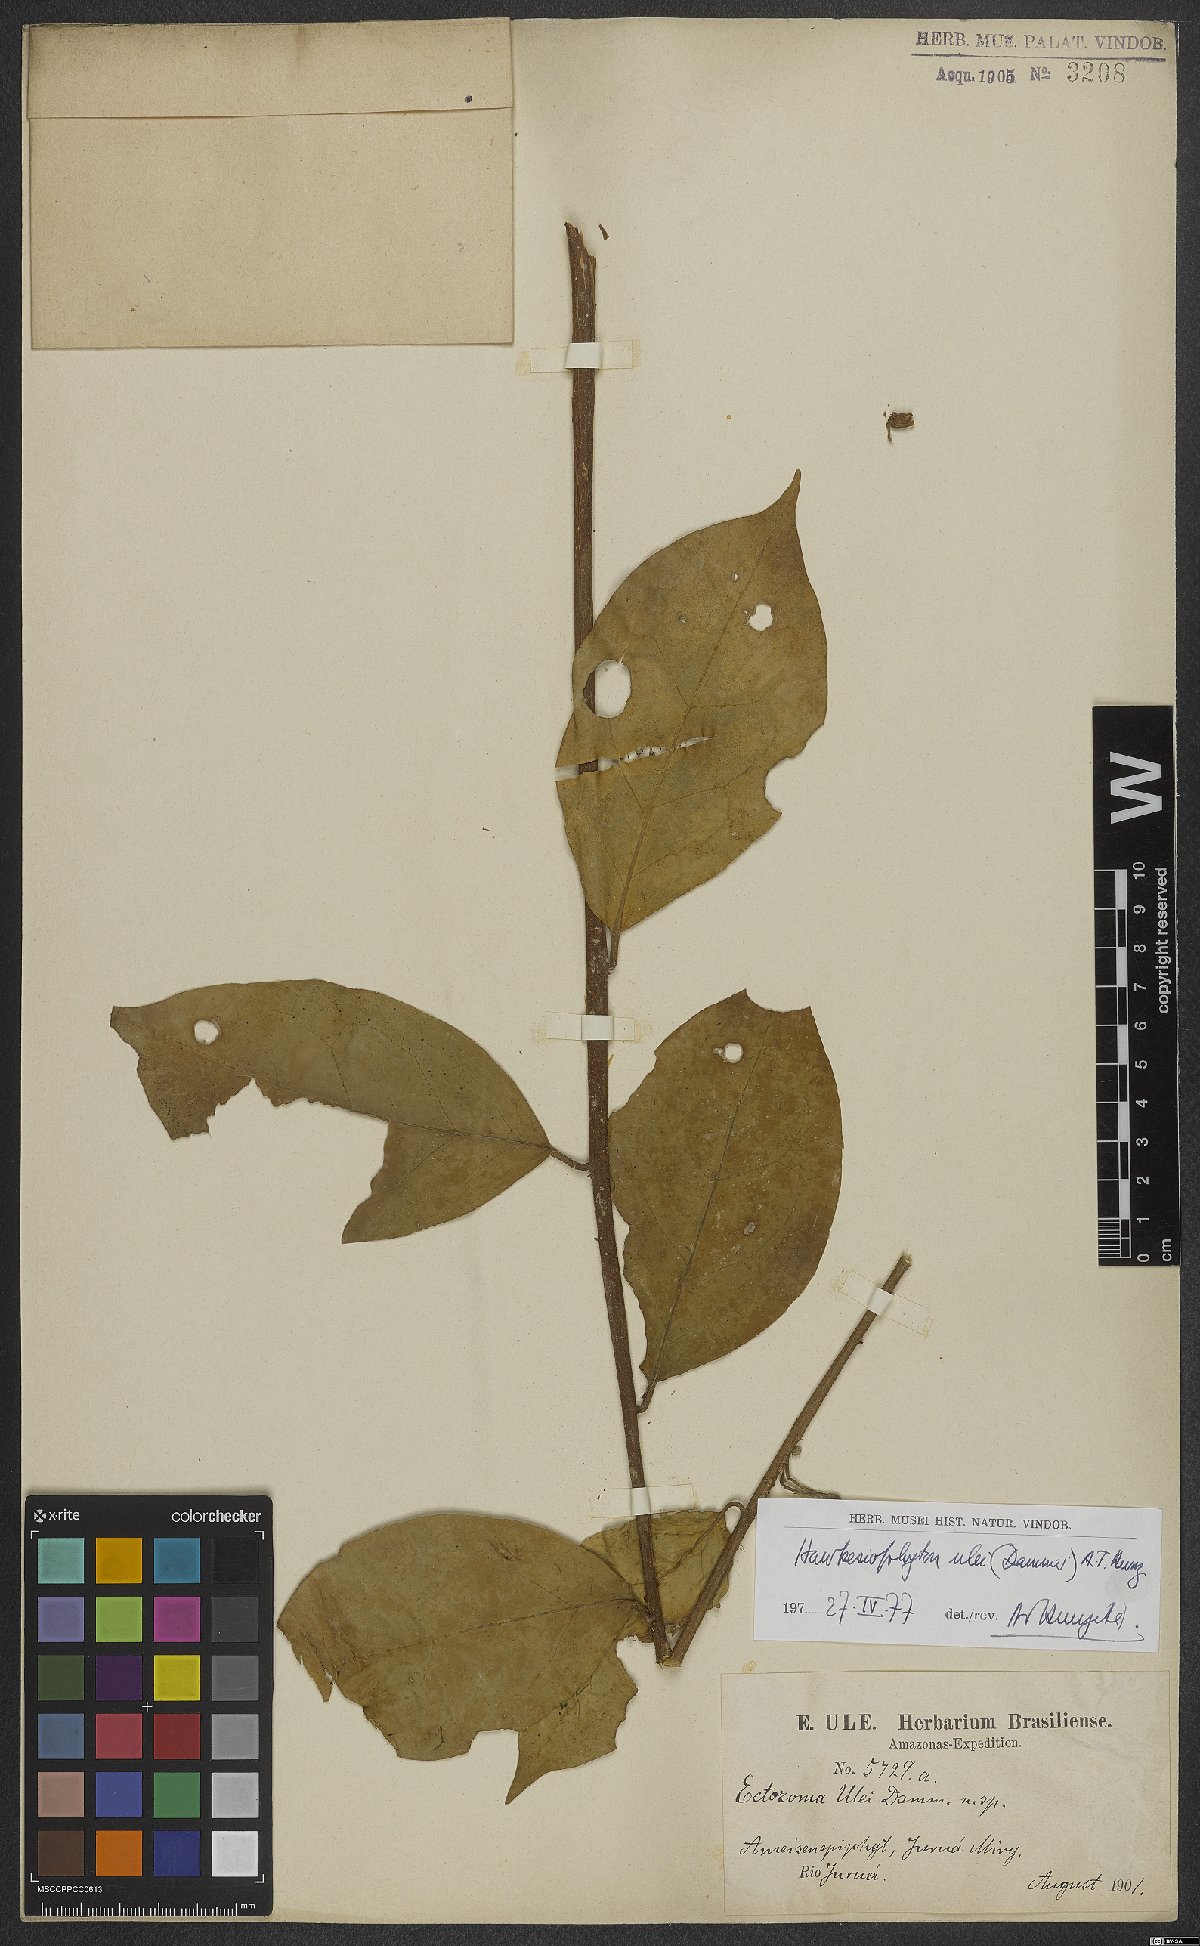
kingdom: Plantae
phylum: Tracheophyta
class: Magnoliopsida
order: Solanales
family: Solanaceae
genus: Hawkesiophyton
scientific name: Hawkesiophyton ulei
